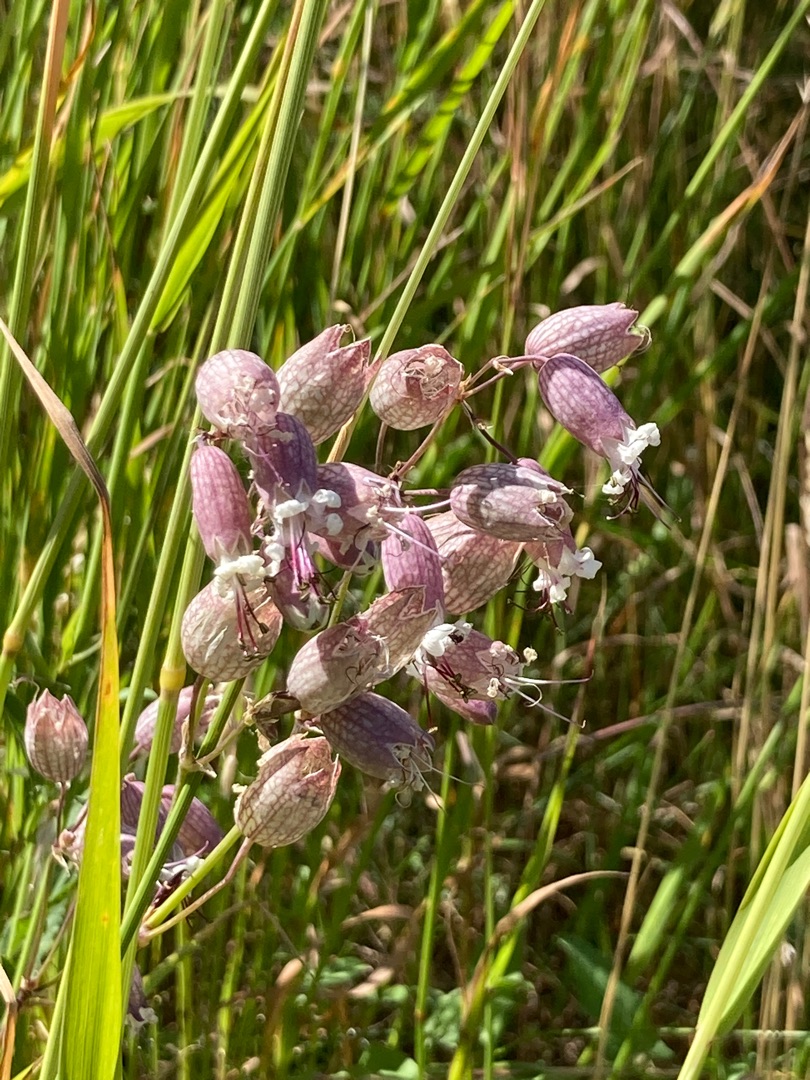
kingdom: Plantae
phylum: Tracheophyta
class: Magnoliopsida
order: Caryophyllales
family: Caryophyllaceae
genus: Silene
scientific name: Silene vulgaris
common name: Blæresmælde
